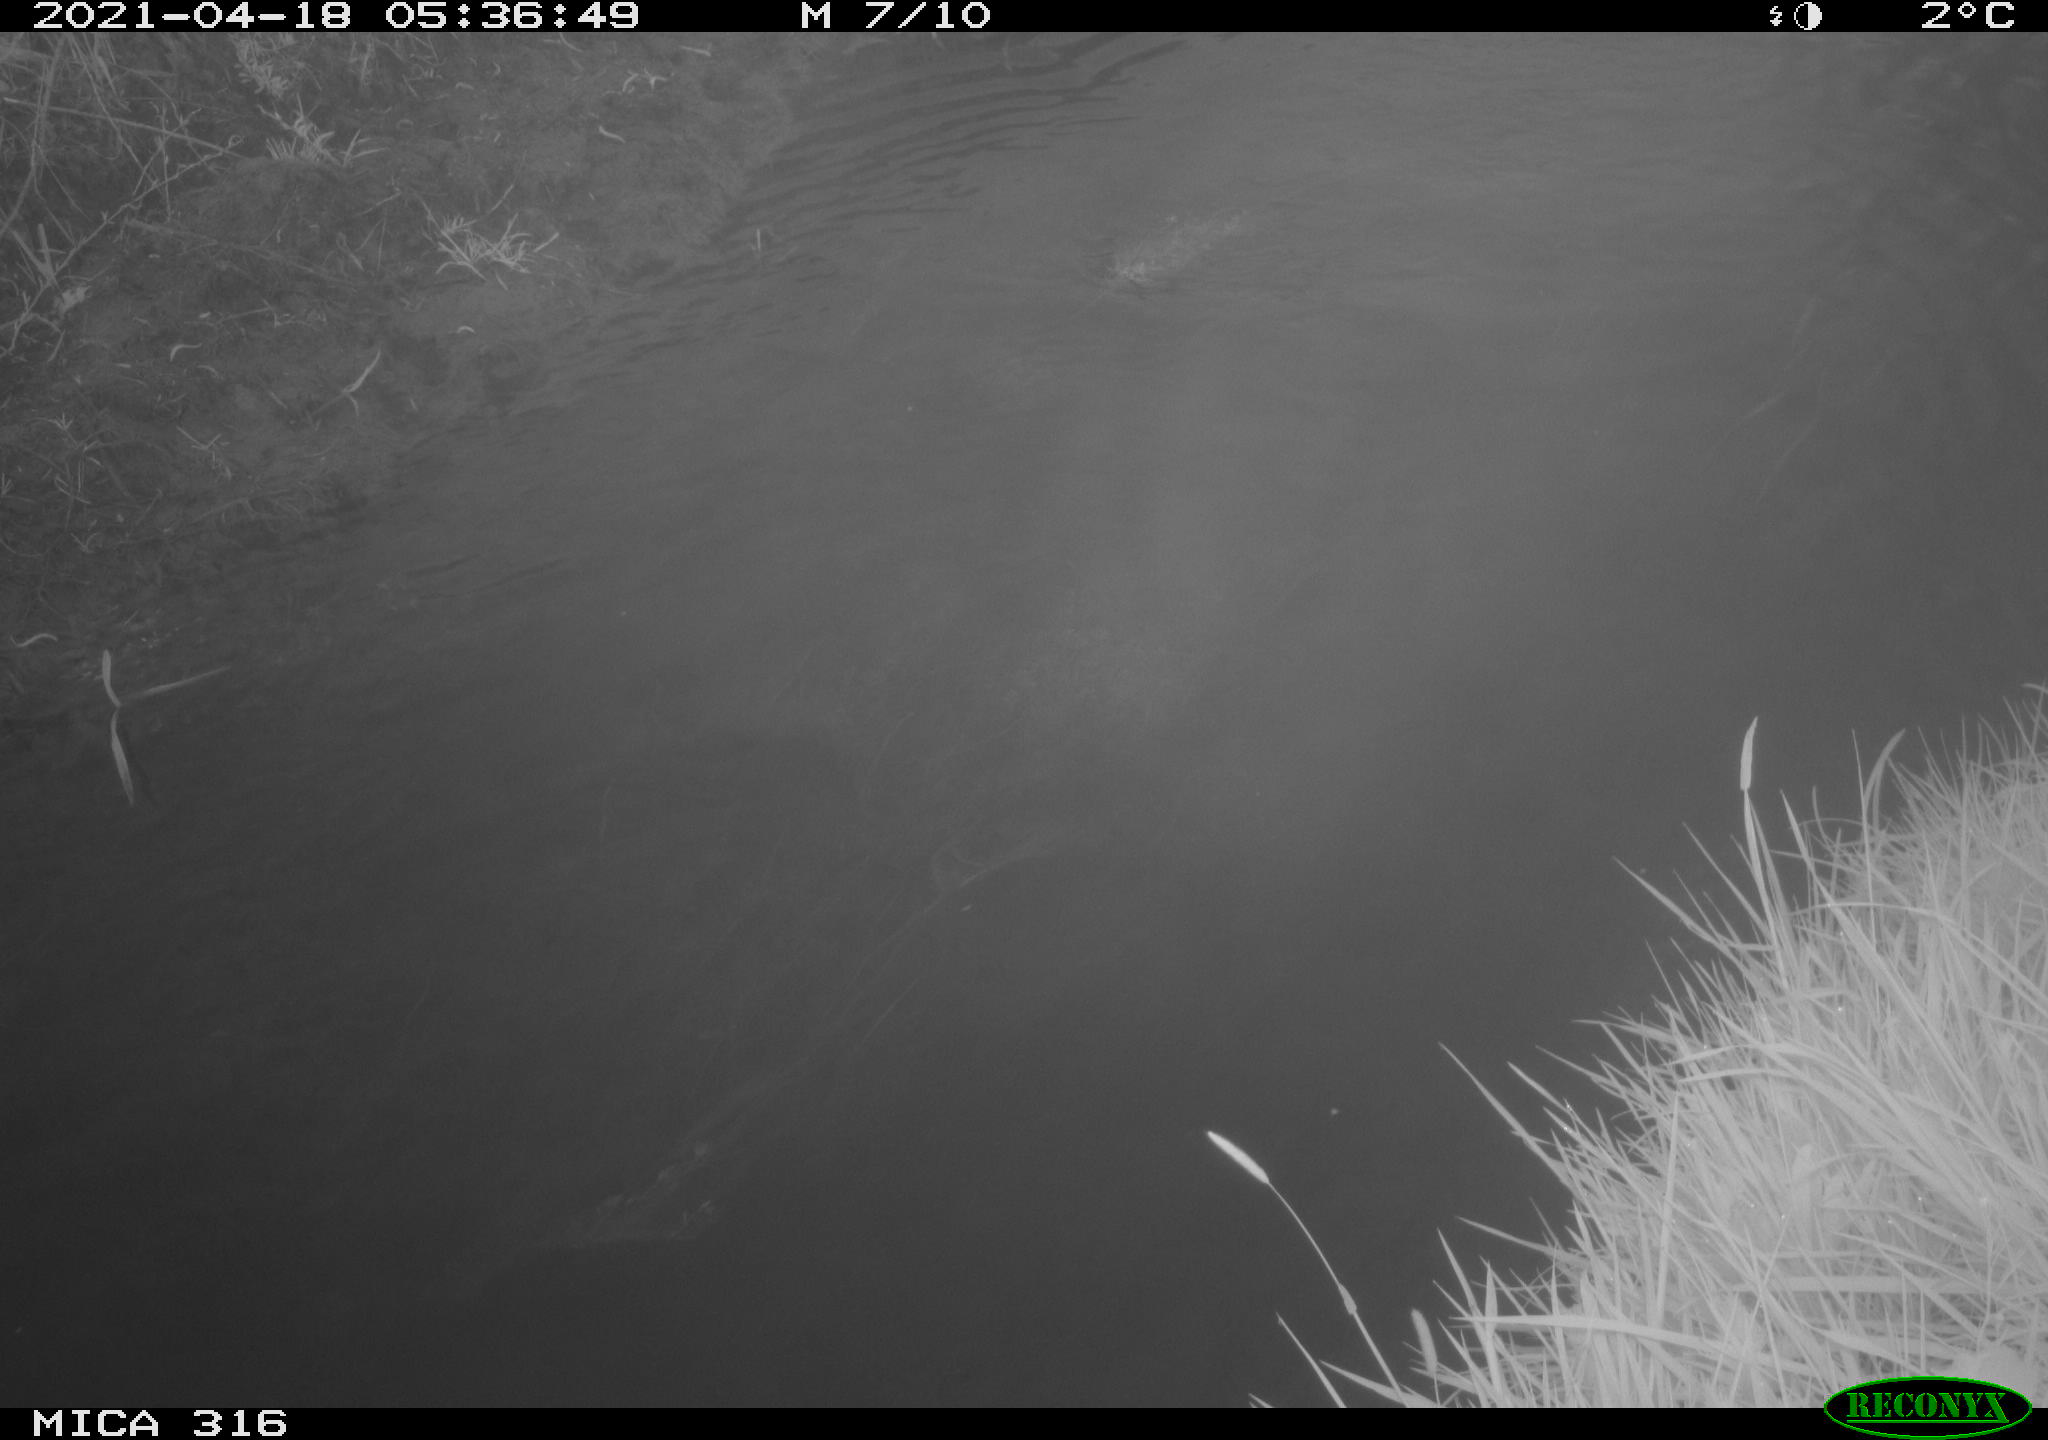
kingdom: Animalia
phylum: Chordata
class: Aves
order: Anseriformes
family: Anatidae
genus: Anas
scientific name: Anas platyrhynchos
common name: Mallard
